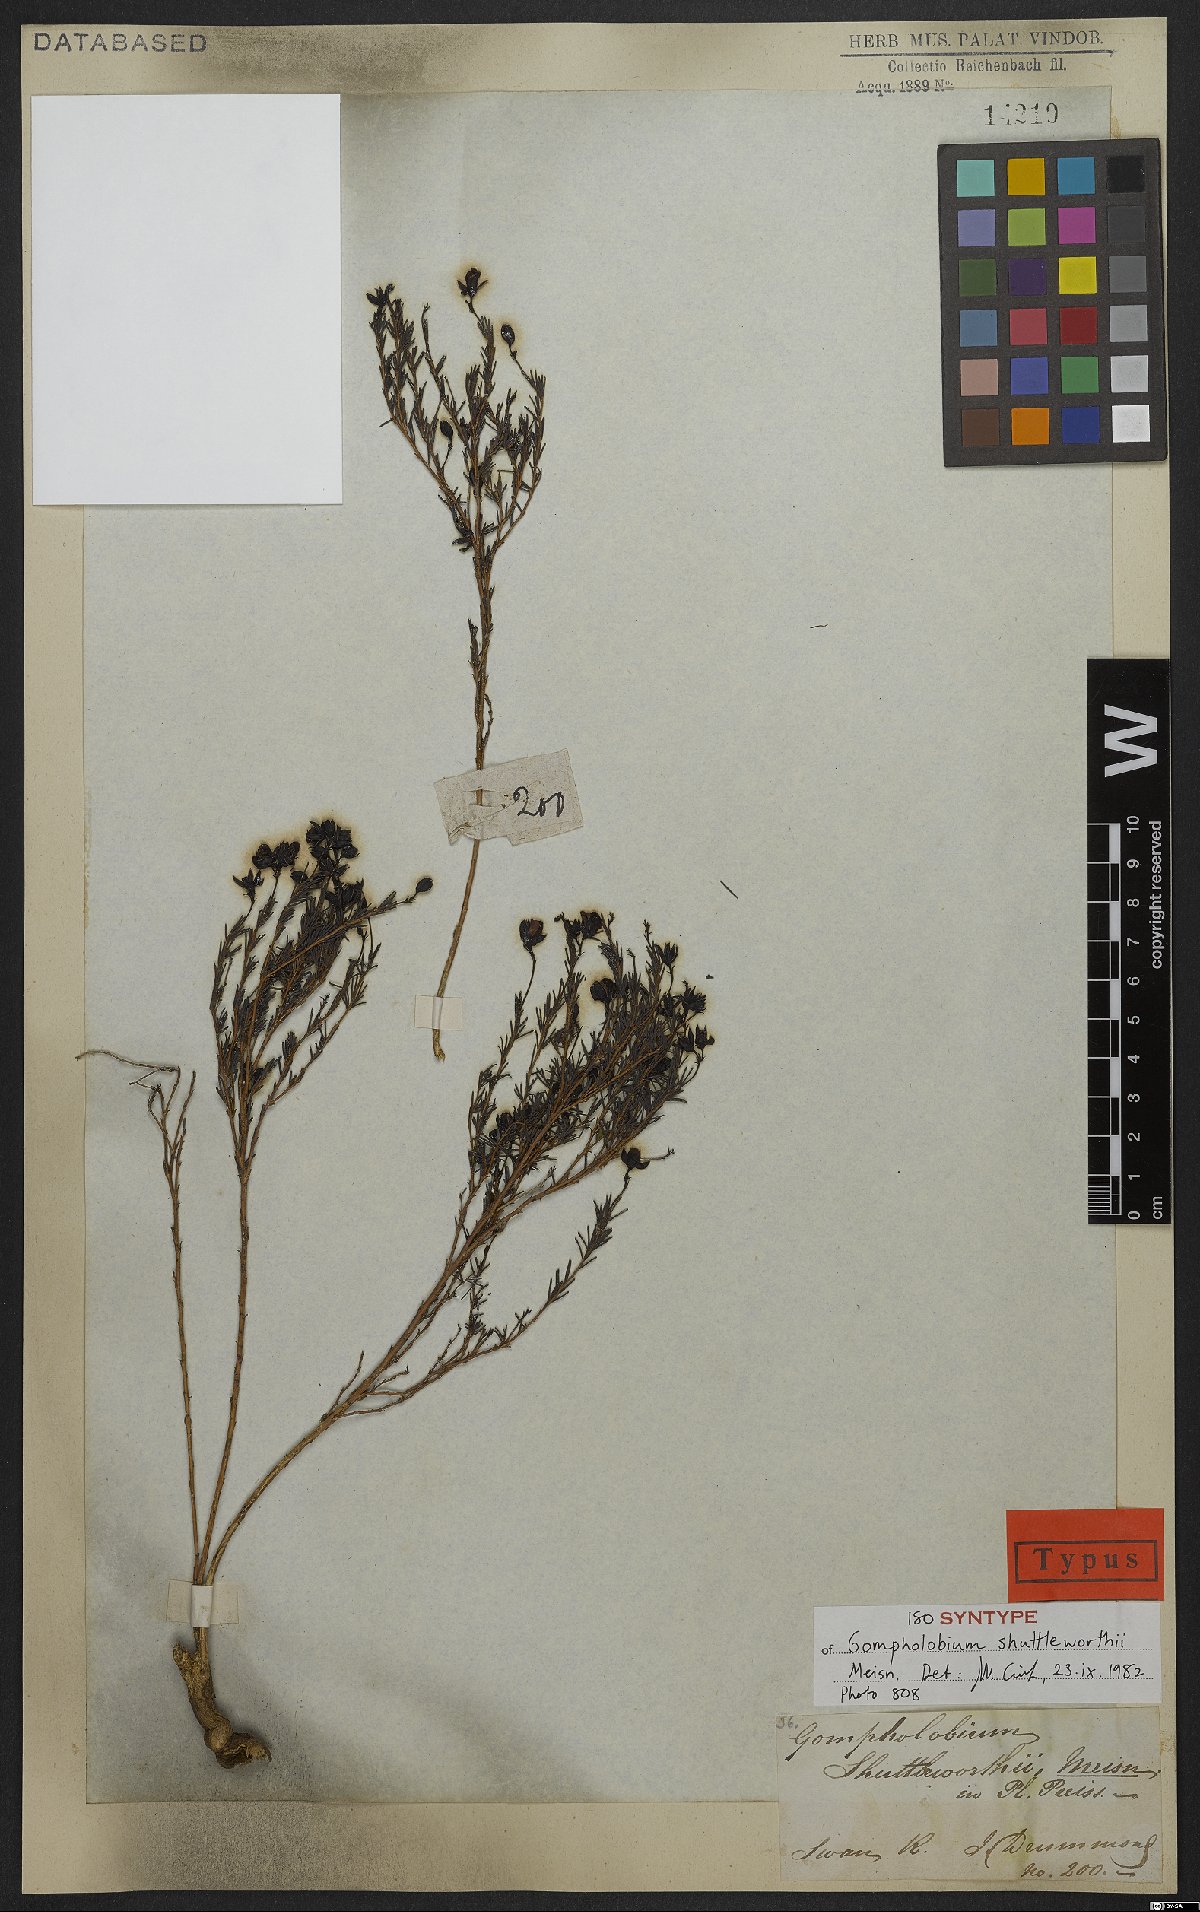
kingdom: Plantae
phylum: Tracheophyta
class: Magnoliopsida
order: Fabales
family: Fabaceae
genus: Gompholobium
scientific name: Gompholobium shuttleworthii
